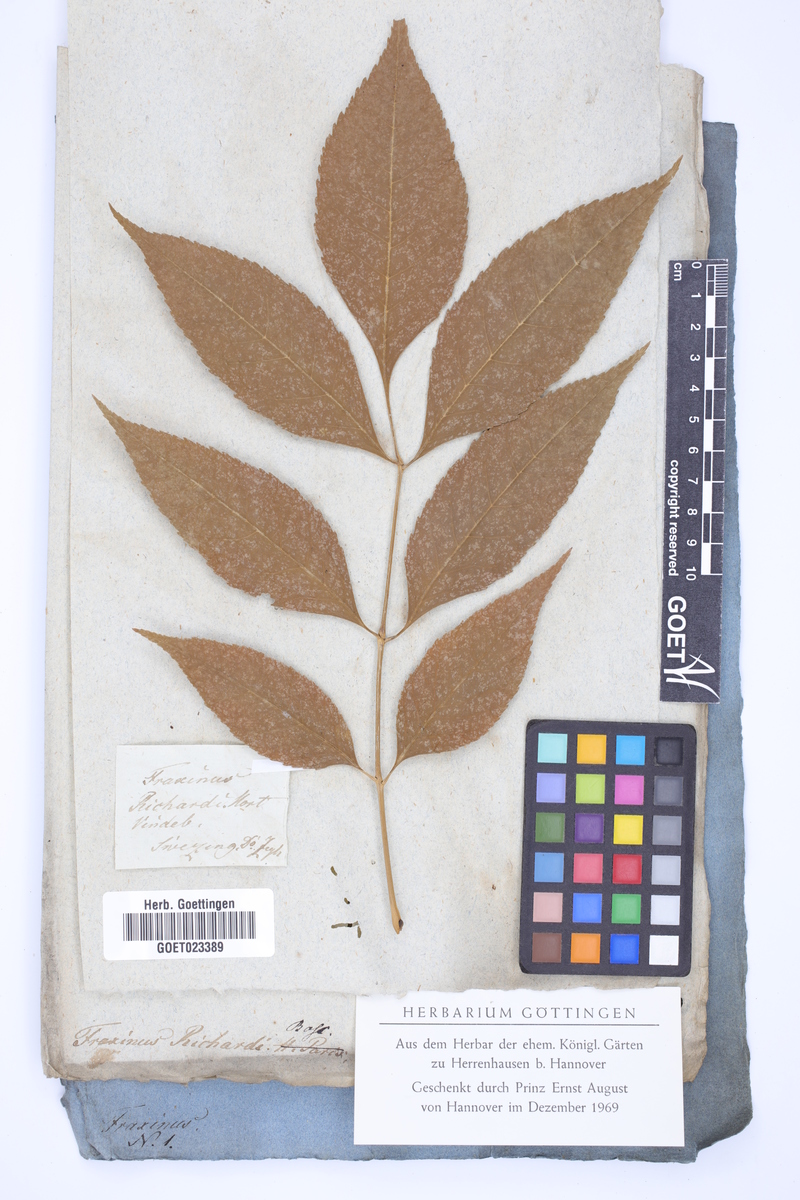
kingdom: Plantae
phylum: Tracheophyta
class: Magnoliopsida
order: Lamiales
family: Oleaceae
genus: Fraxinus
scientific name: Fraxinus pennsylvanica
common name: Green ash
